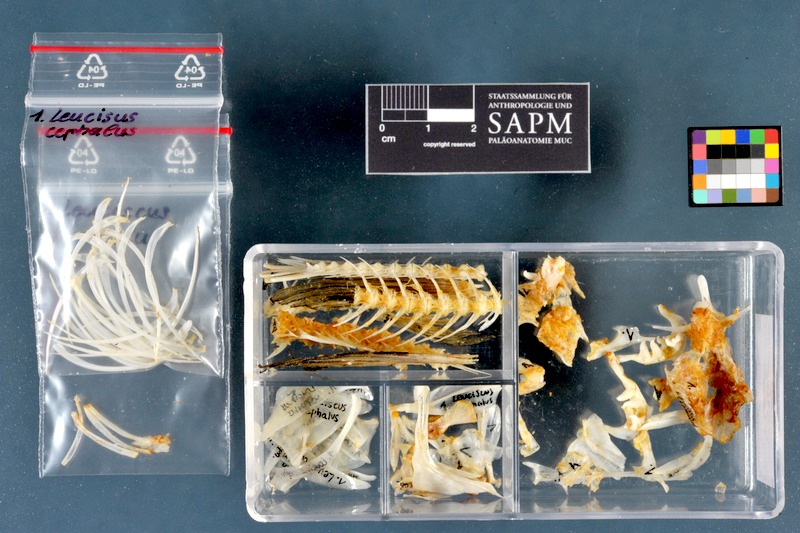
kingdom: Animalia
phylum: Chordata
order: Cypriniformes
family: Cyprinidae
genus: Squalius
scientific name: Squalius cephalus
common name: Chub
